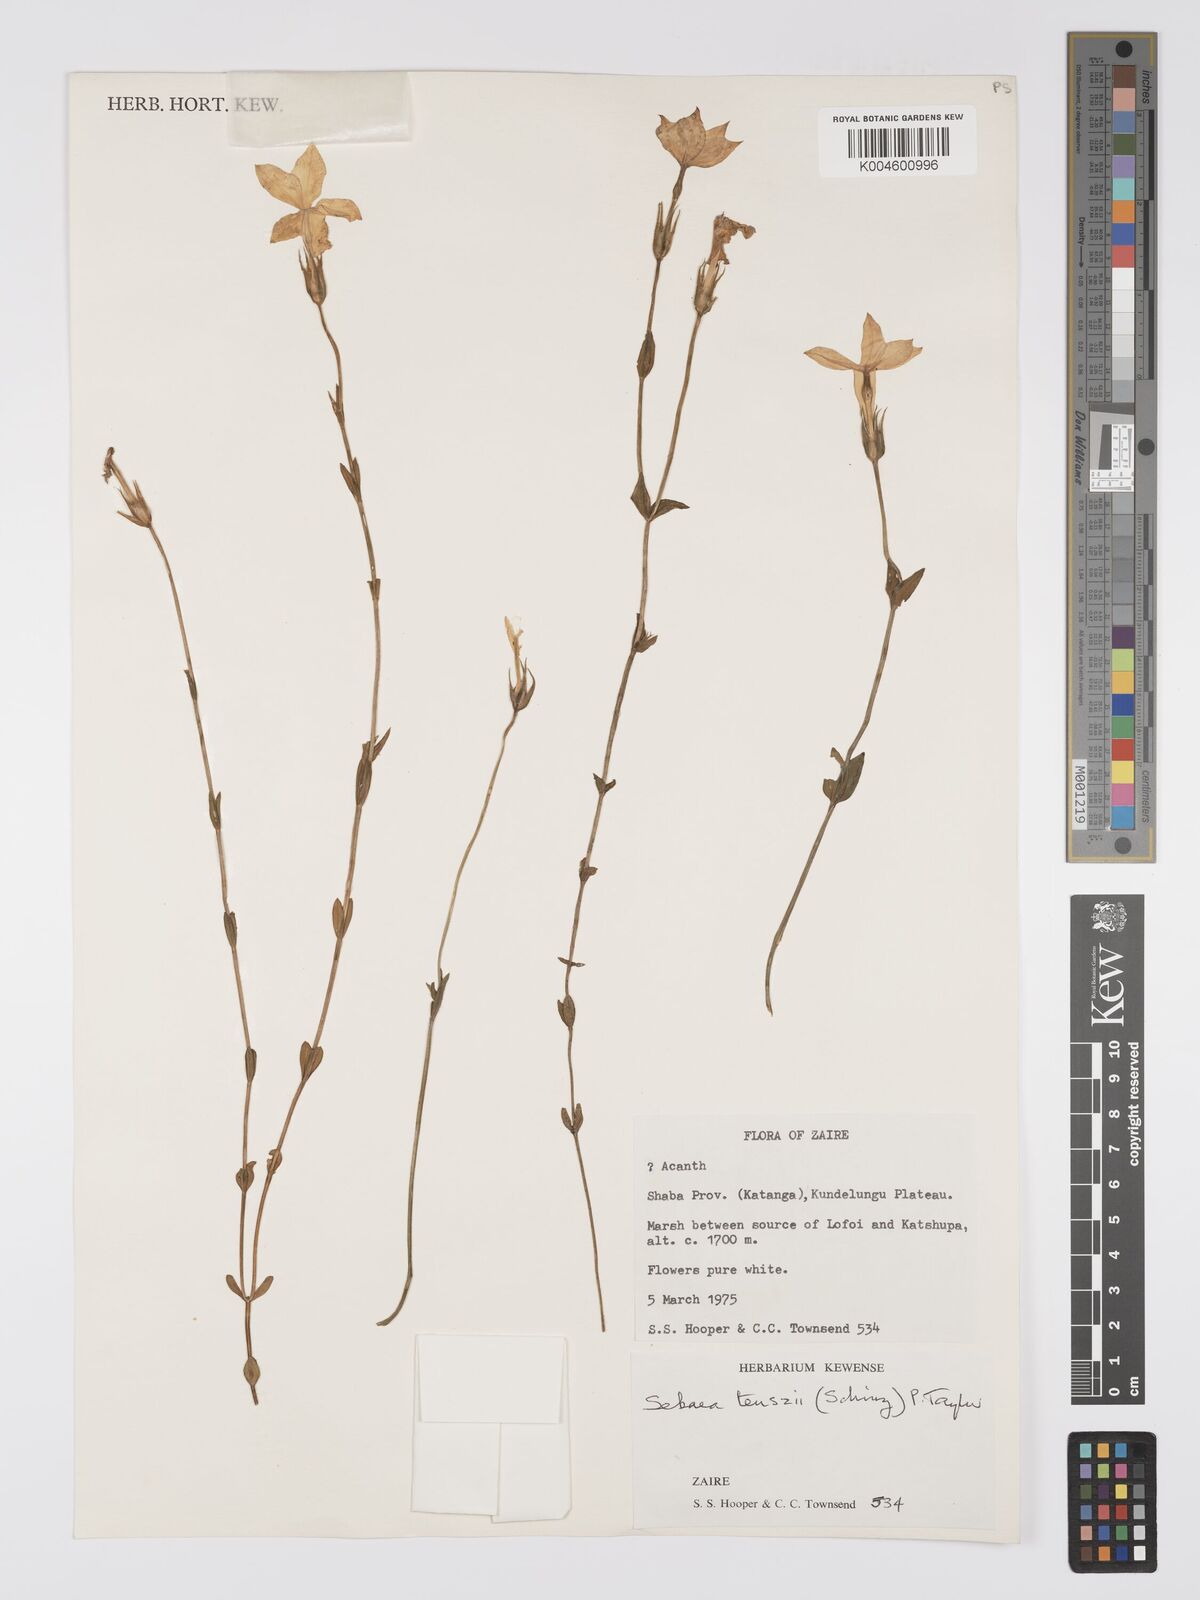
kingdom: Plantae
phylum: Tracheophyta
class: Magnoliopsida
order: Gentianales
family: Gentianaceae
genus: Exochaenium
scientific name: Exochaenium teuszii
